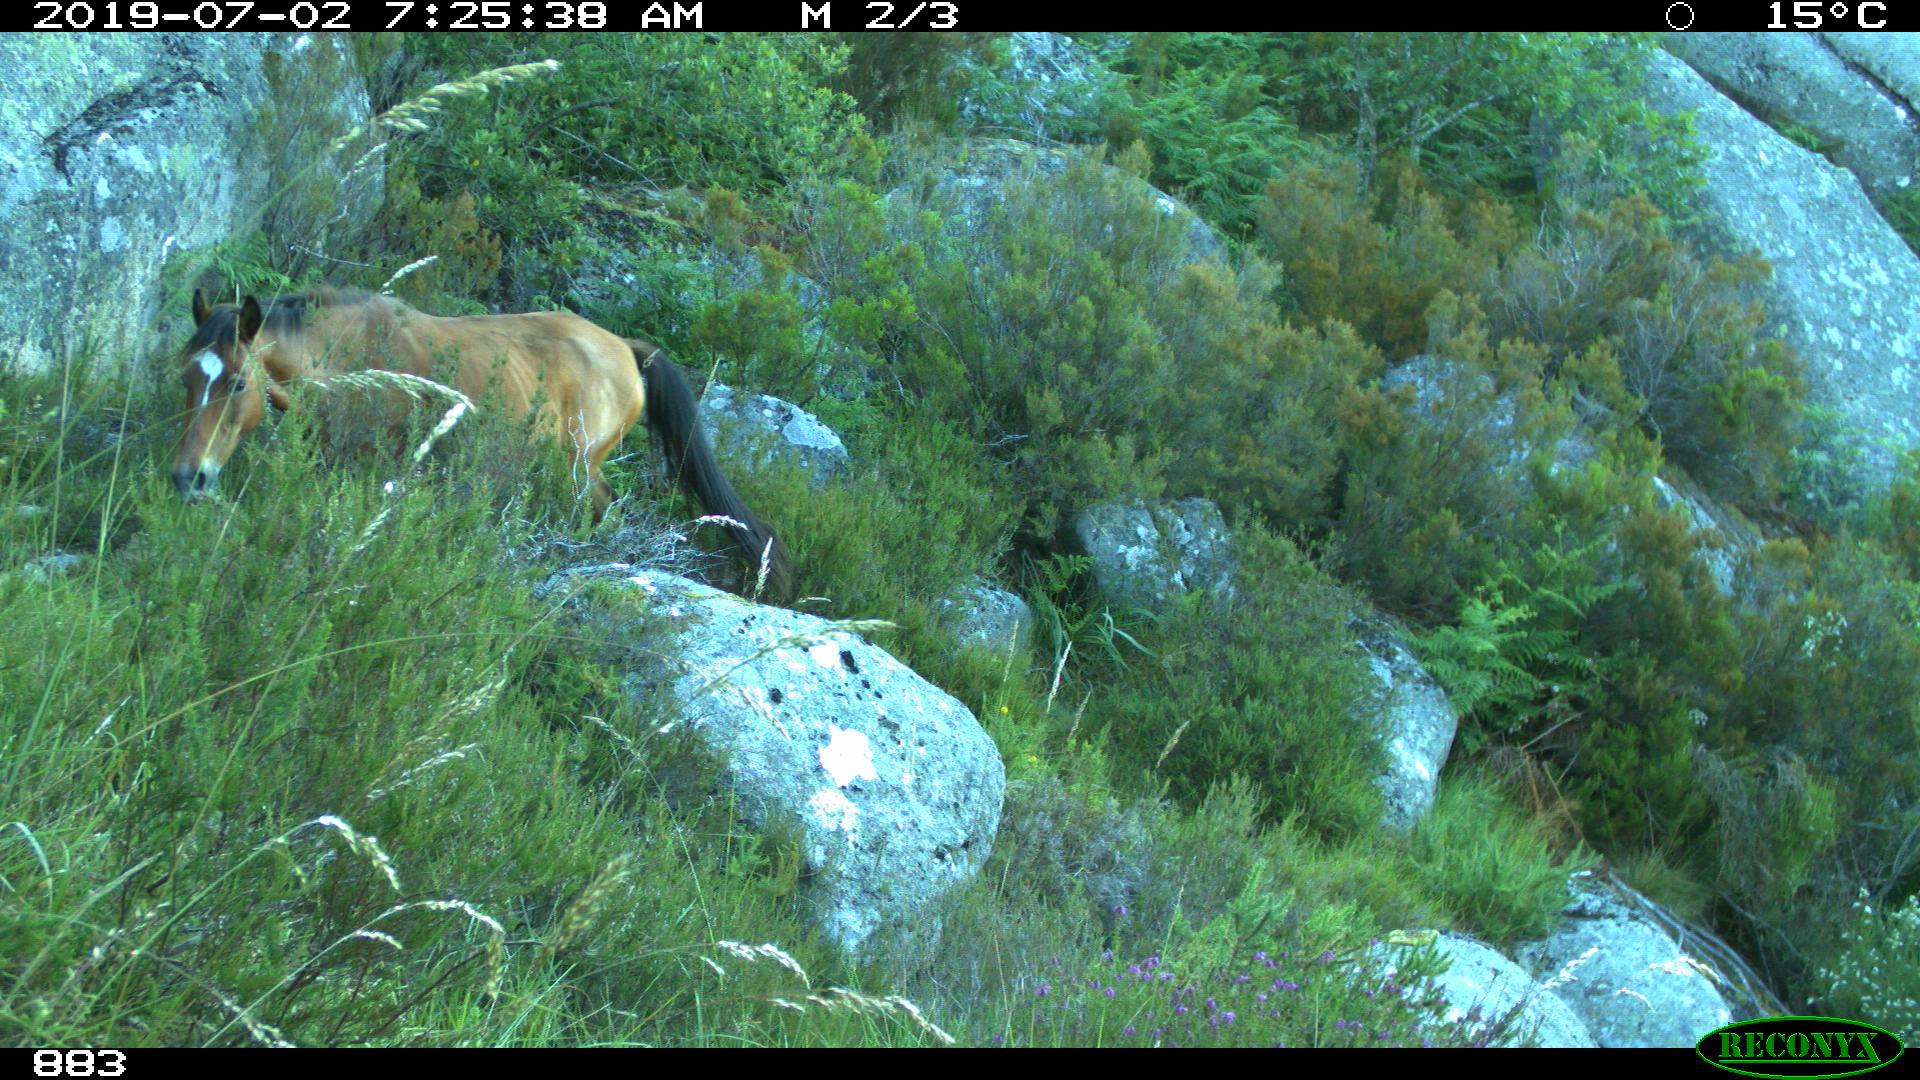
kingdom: Animalia
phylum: Chordata
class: Mammalia
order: Perissodactyla
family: Equidae
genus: Equus
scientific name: Equus caballus
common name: Horse
